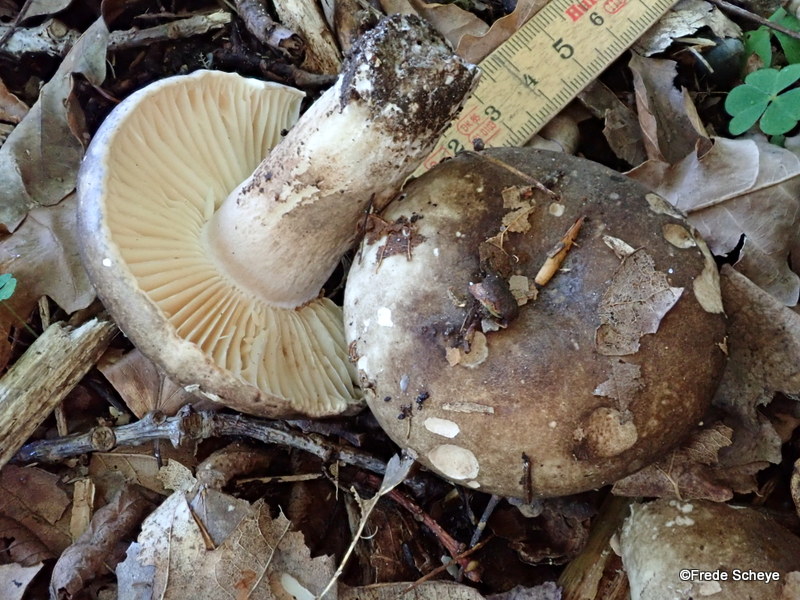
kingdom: Fungi
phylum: Basidiomycota
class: Agaricomycetes
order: Russulales
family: Russulaceae
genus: Russula
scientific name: Russula adusta
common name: sværtende skørhat
